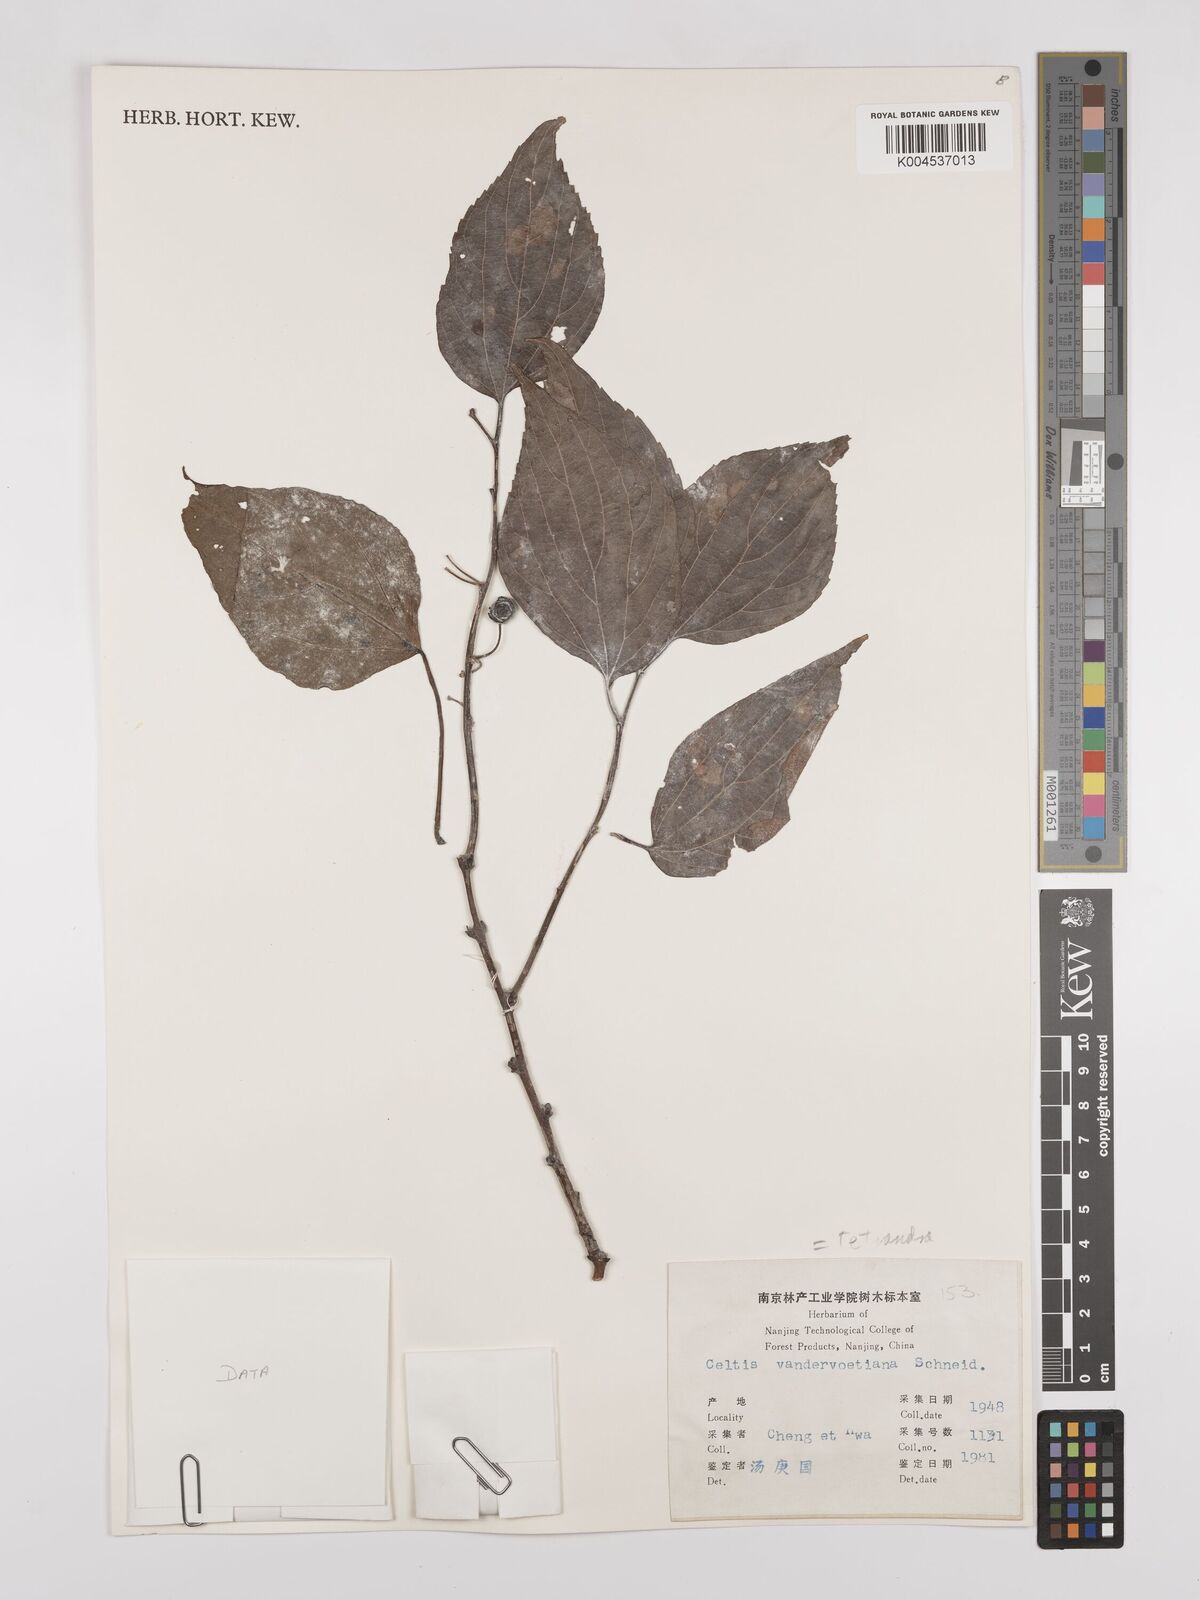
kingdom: Plantae
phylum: Tracheophyta
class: Magnoliopsida
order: Rosales
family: Cannabaceae
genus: Celtis
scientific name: Celtis tetrandra
